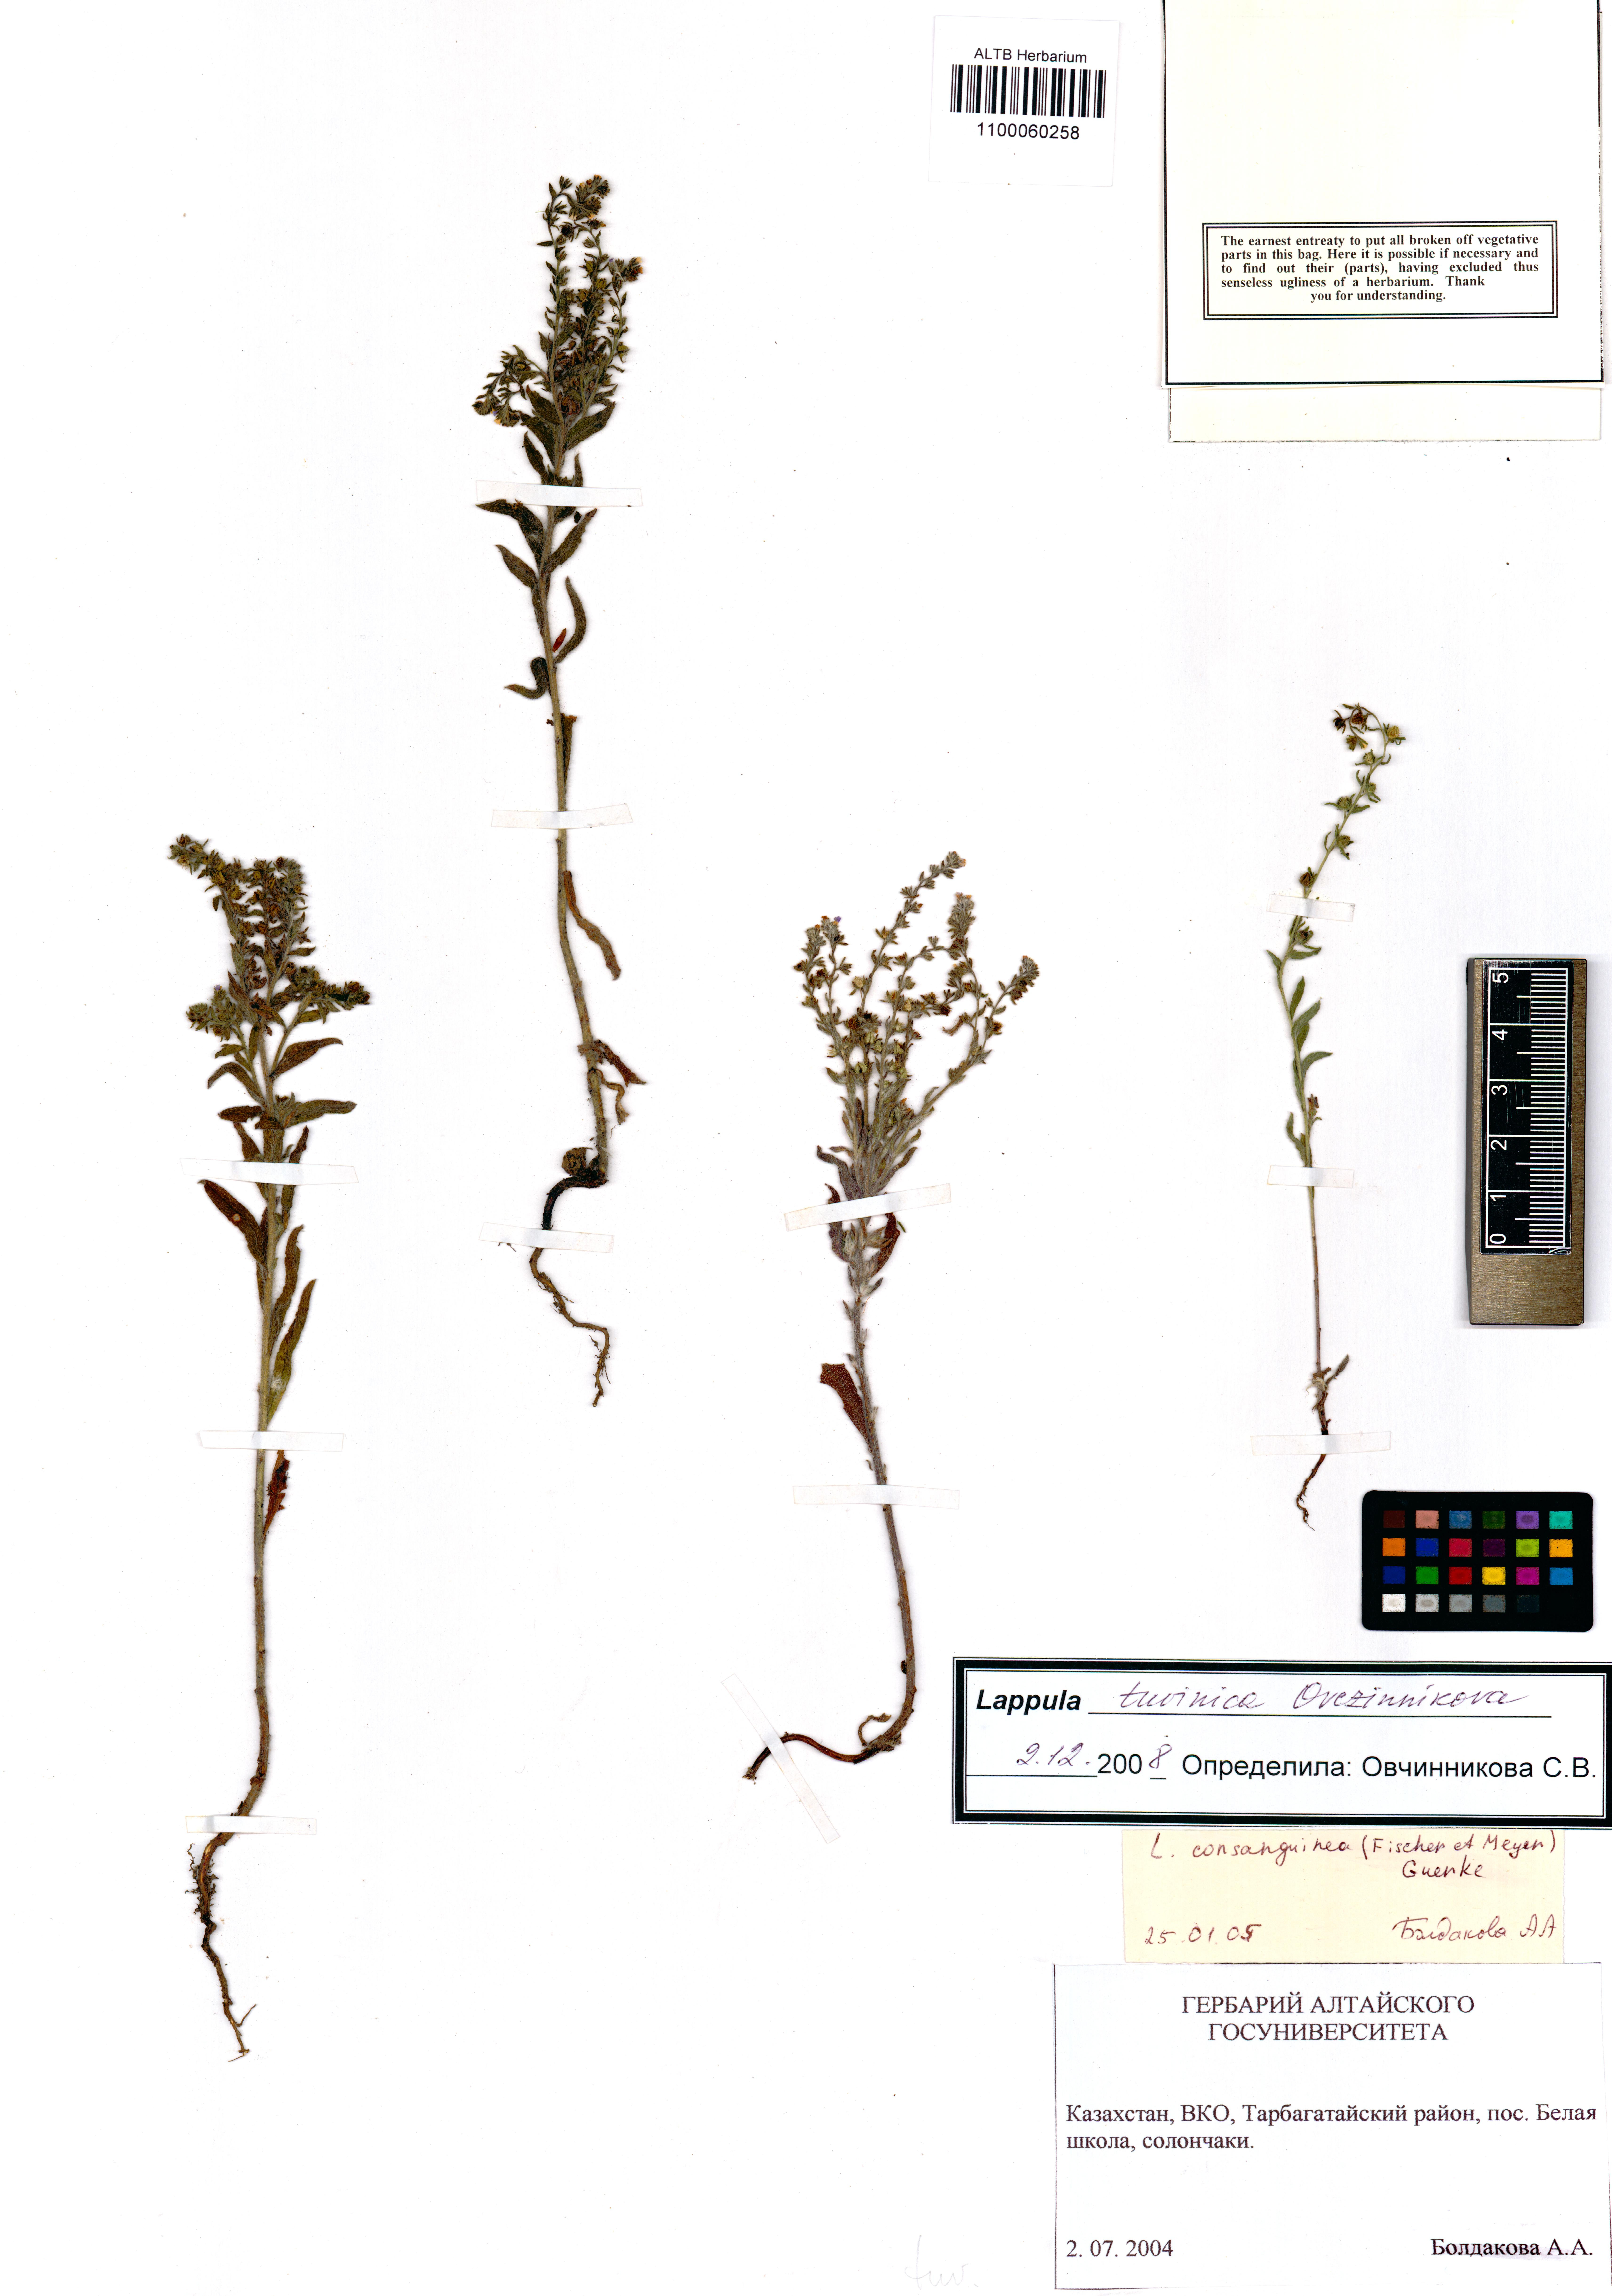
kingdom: Plantae
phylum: Tracheophyta
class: Magnoliopsida
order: Boraginales
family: Boraginaceae
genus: Lappula
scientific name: Lappula tuvinica
